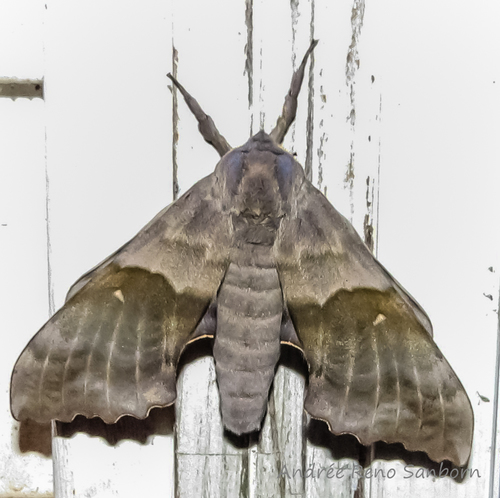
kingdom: Animalia
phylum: Arthropoda
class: Insecta
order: Lepidoptera
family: Sphingidae
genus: Pachysphinx
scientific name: Pachysphinx modesta
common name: Big poplar sphinx
